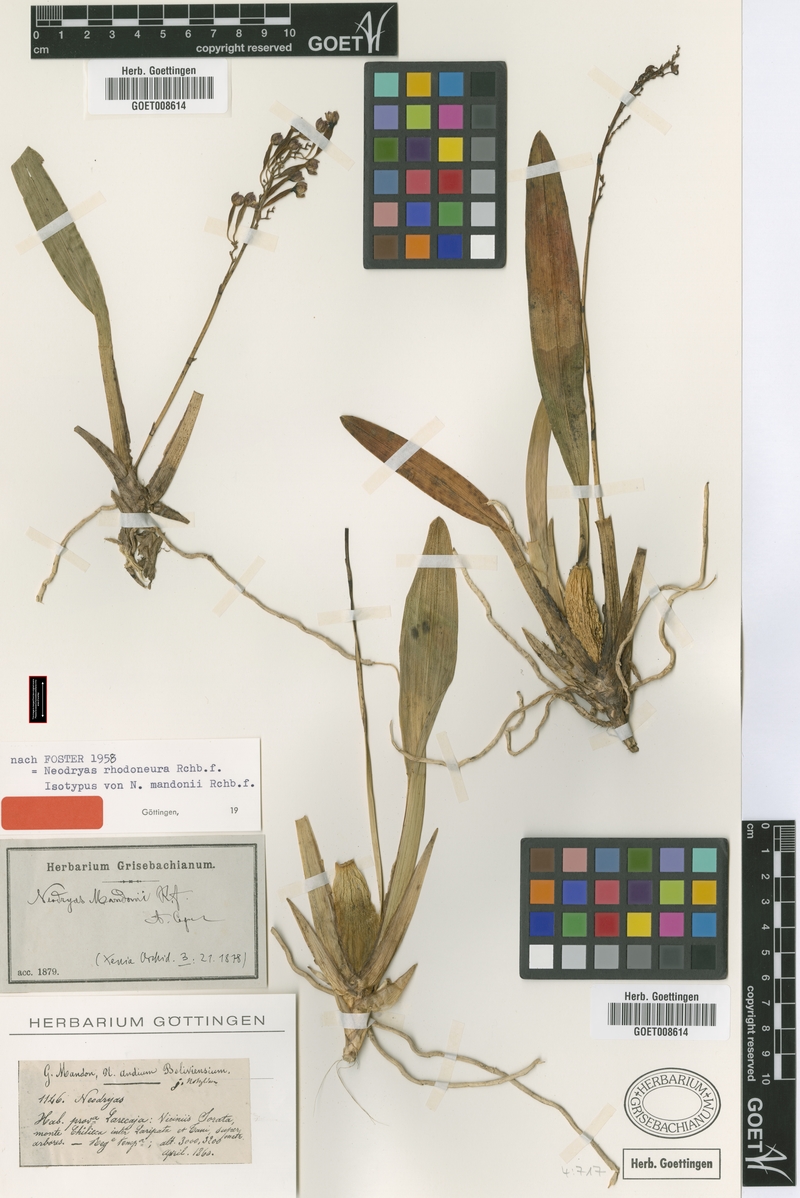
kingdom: Plantae
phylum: Tracheophyta
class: Liliopsida
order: Asparagales
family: Orchidaceae
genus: Cyrtochilum
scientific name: Cyrtochilum rhodoneurum
